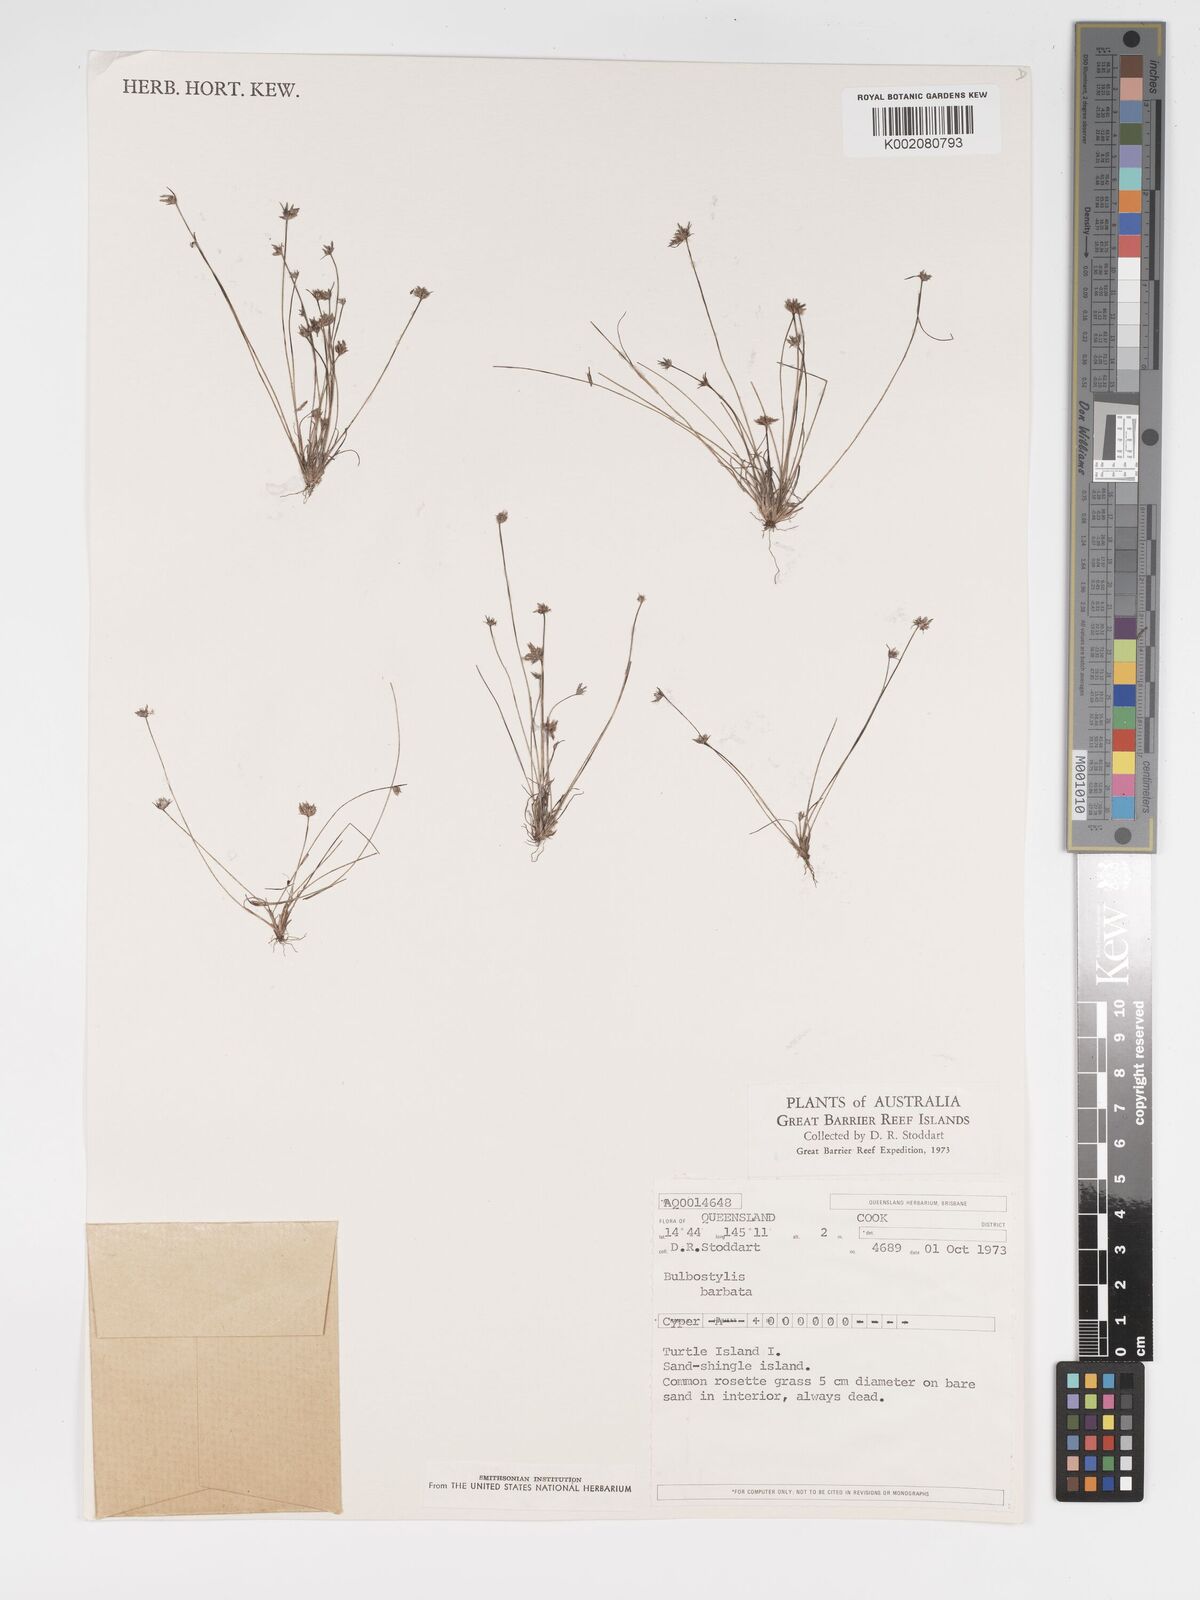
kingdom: Plantae
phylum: Tracheophyta
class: Liliopsida
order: Poales
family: Cyperaceae
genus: Bulbostylis
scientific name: Bulbostylis barbata
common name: Watergrass
